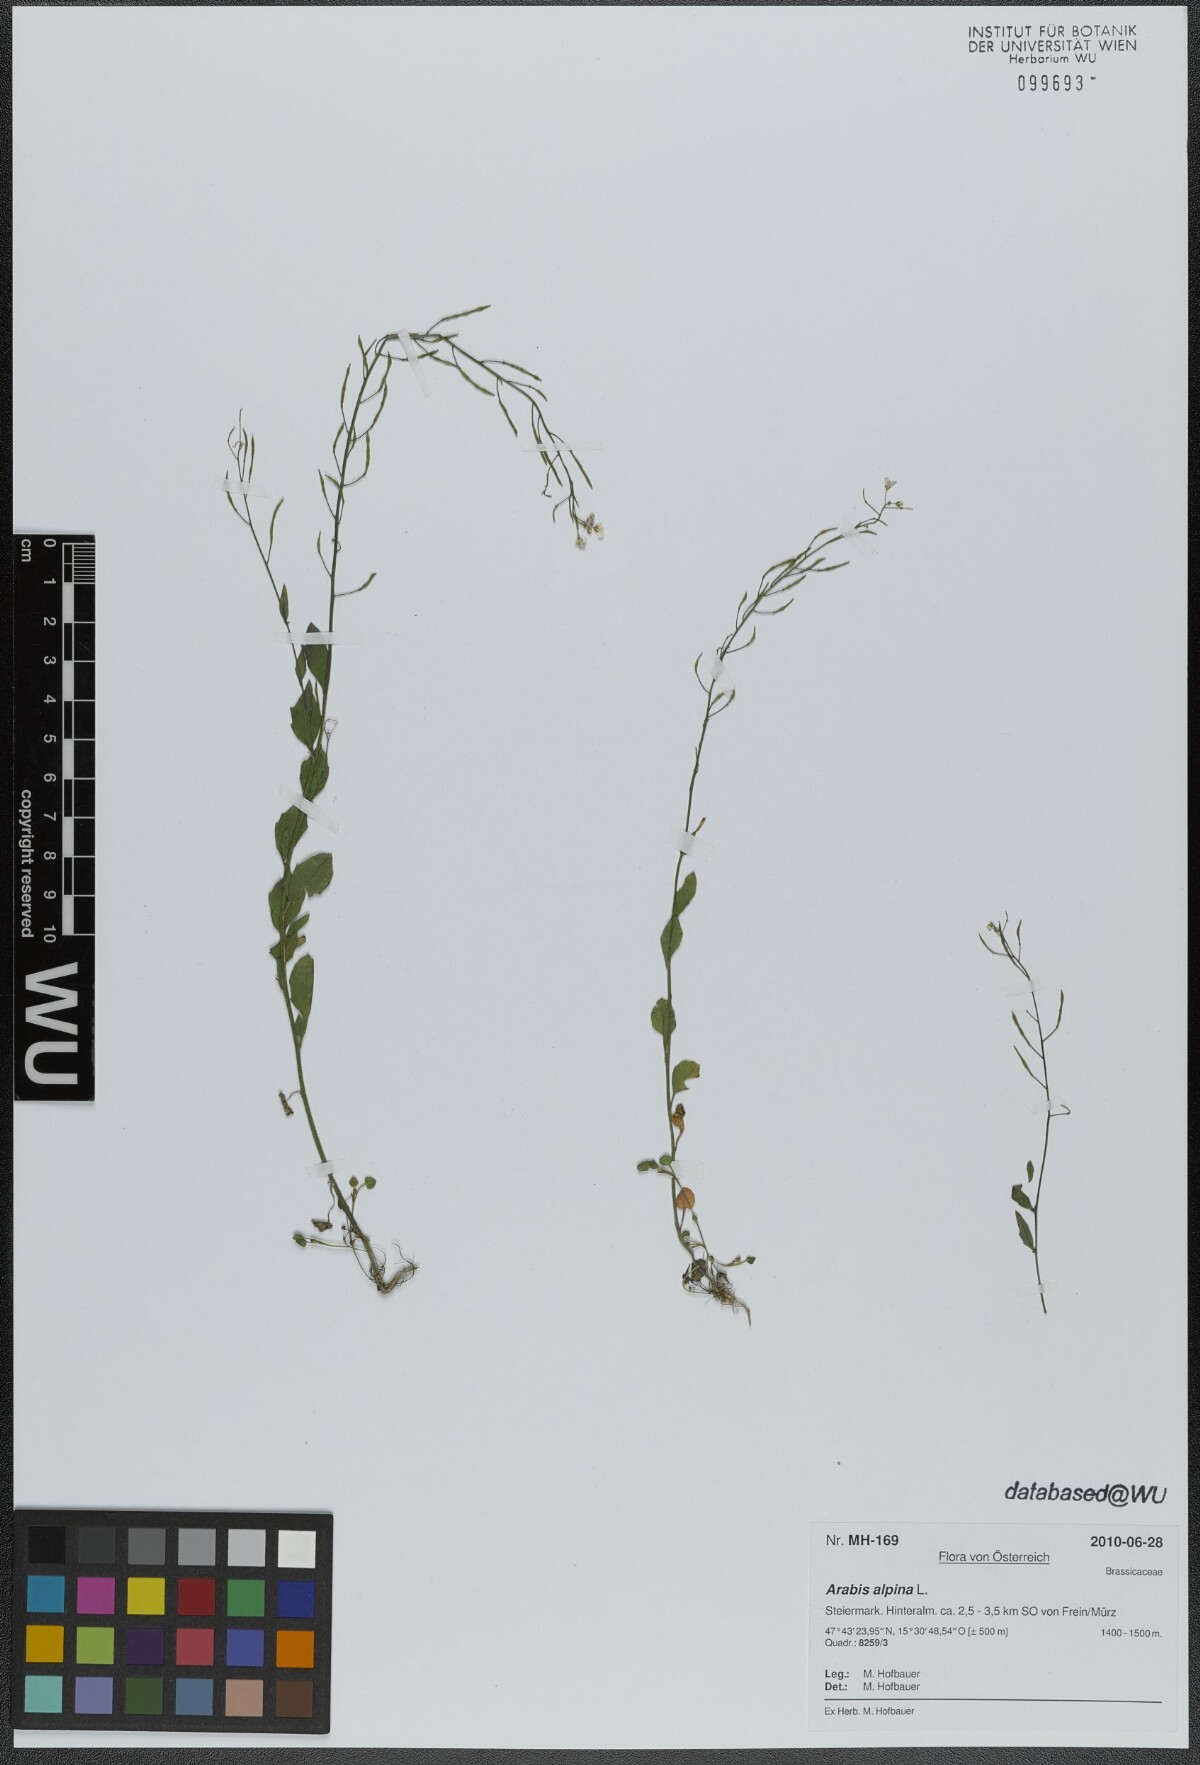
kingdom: Plantae
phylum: Tracheophyta
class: Magnoliopsida
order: Brassicales
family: Brassicaceae
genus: Arabis
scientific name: Arabis alpina
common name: Alpine rock-cress
